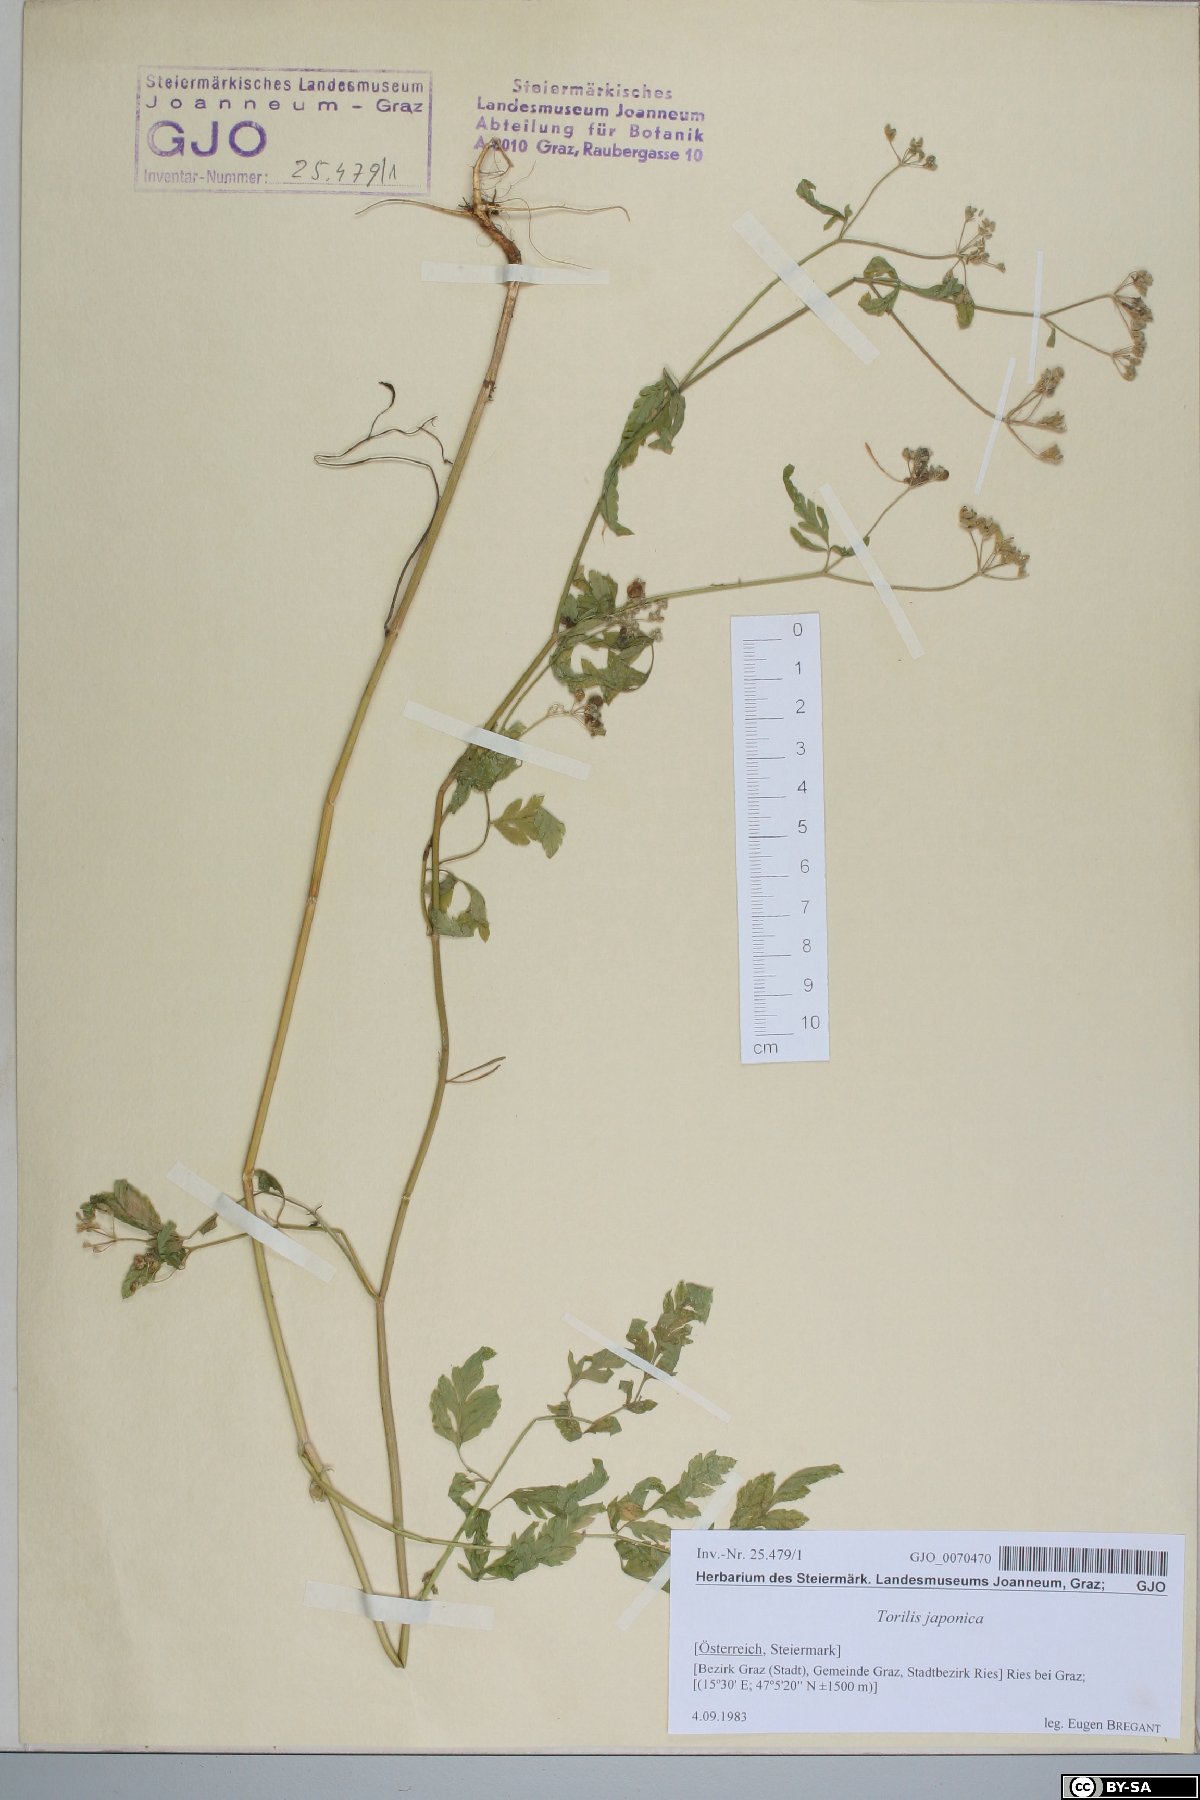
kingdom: Plantae
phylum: Tracheophyta
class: Magnoliopsida
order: Apiales
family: Apiaceae
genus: Torilis
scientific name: Torilis japonica
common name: Upright hedge-parsley
